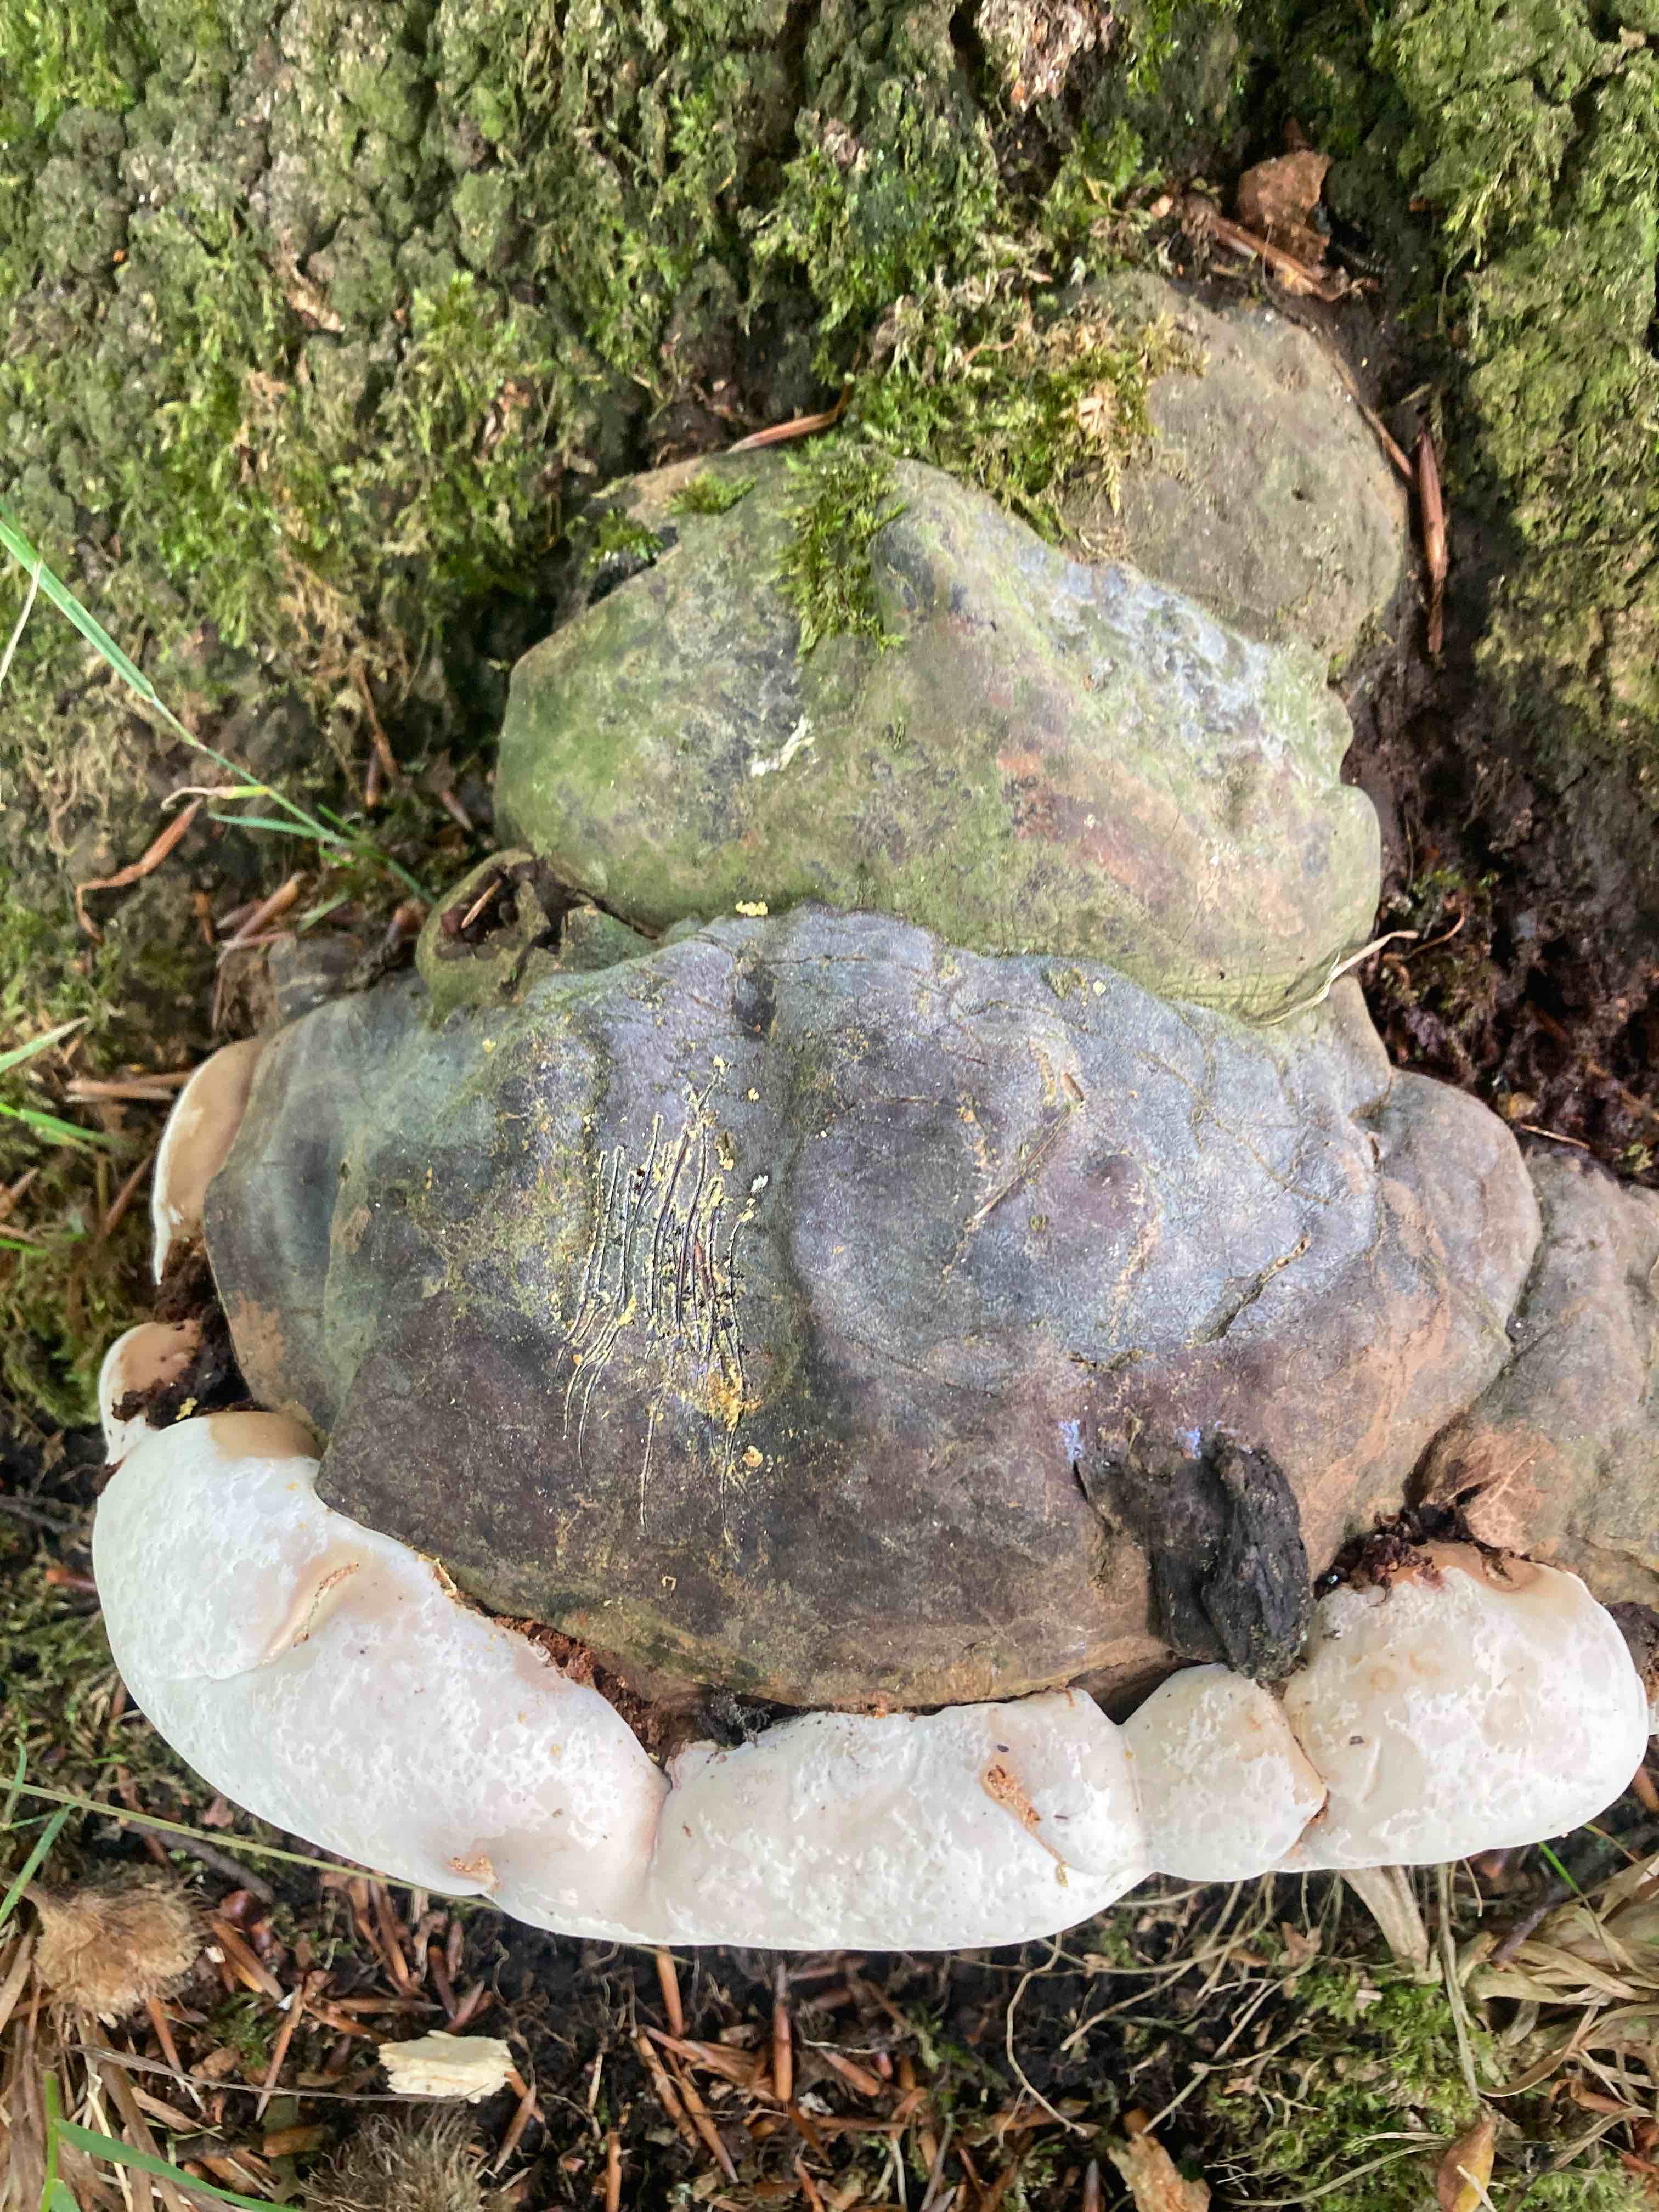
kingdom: Fungi
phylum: Basidiomycota
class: Agaricomycetes
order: Polyporales
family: Polyporaceae
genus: Ganoderma
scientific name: Ganoderma pfeifferi
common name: kobberrød lakporesvamp
